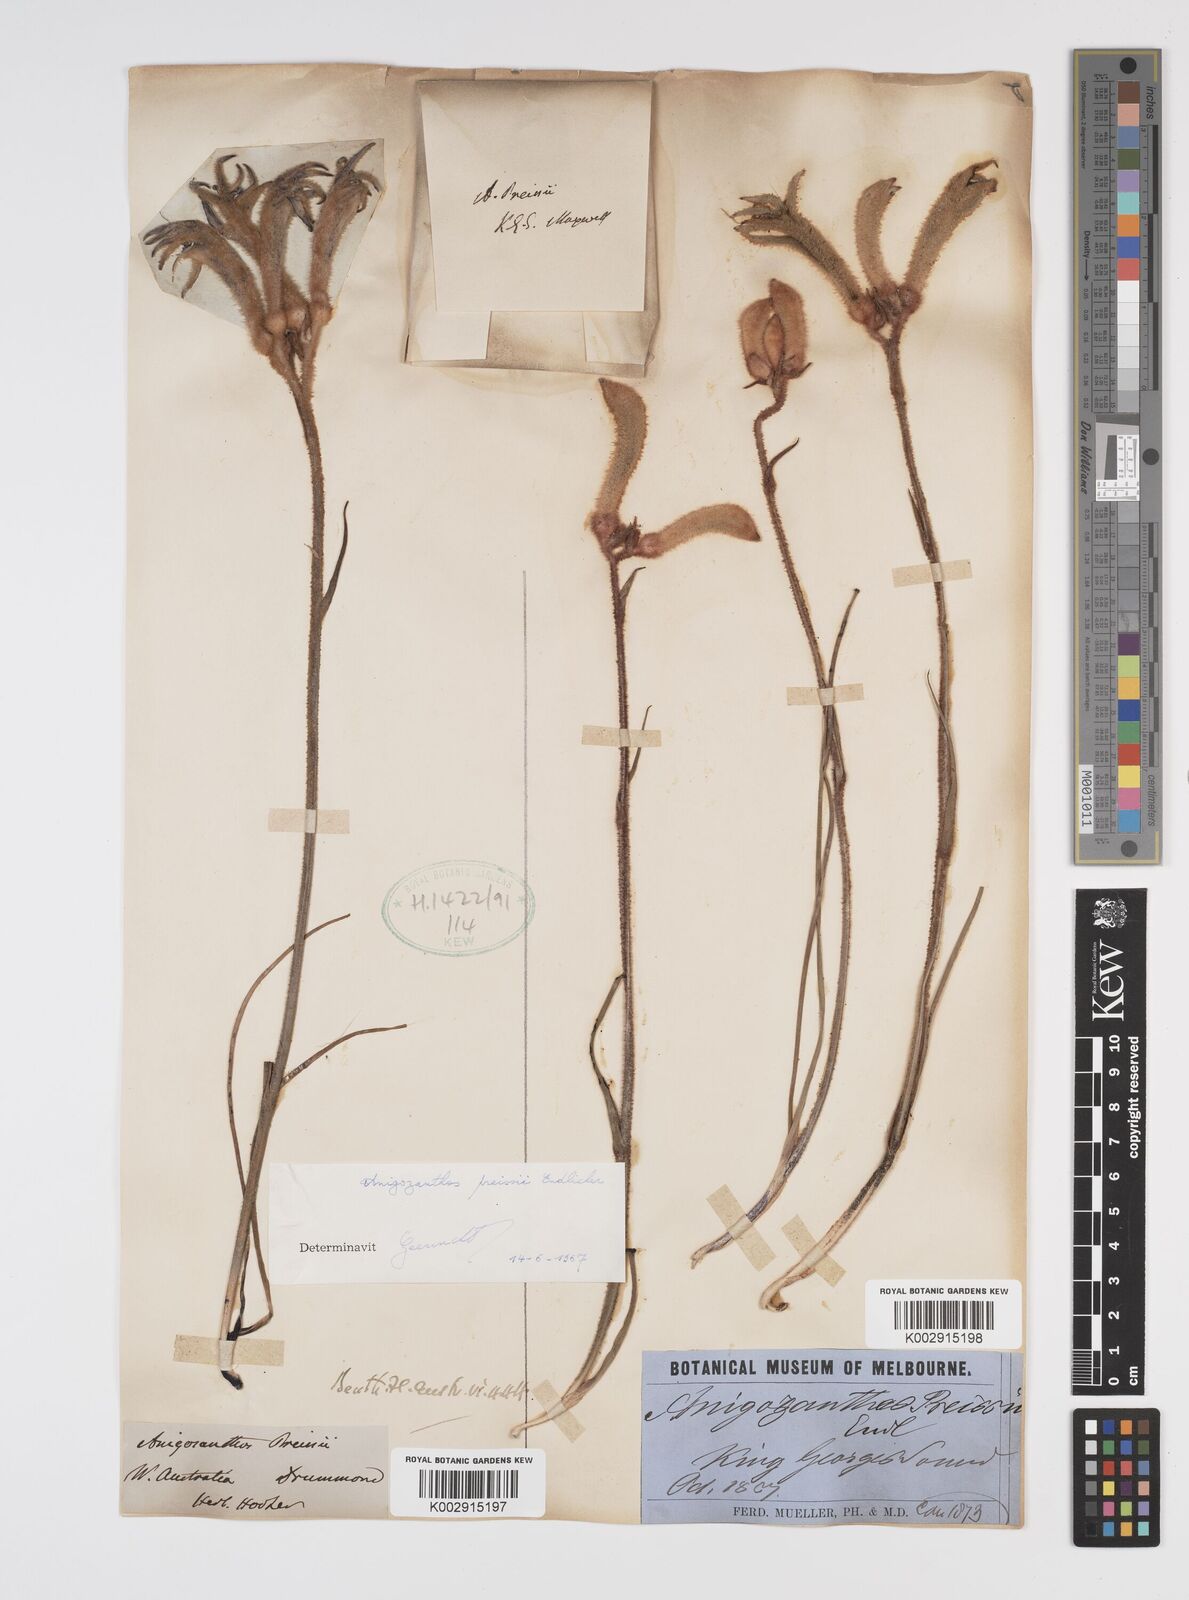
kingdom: Plantae
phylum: Tracheophyta
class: Liliopsida
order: Commelinales
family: Haemodoraceae
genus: Anigozanthos
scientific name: Anigozanthos preissii
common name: Albany cat's-paw
